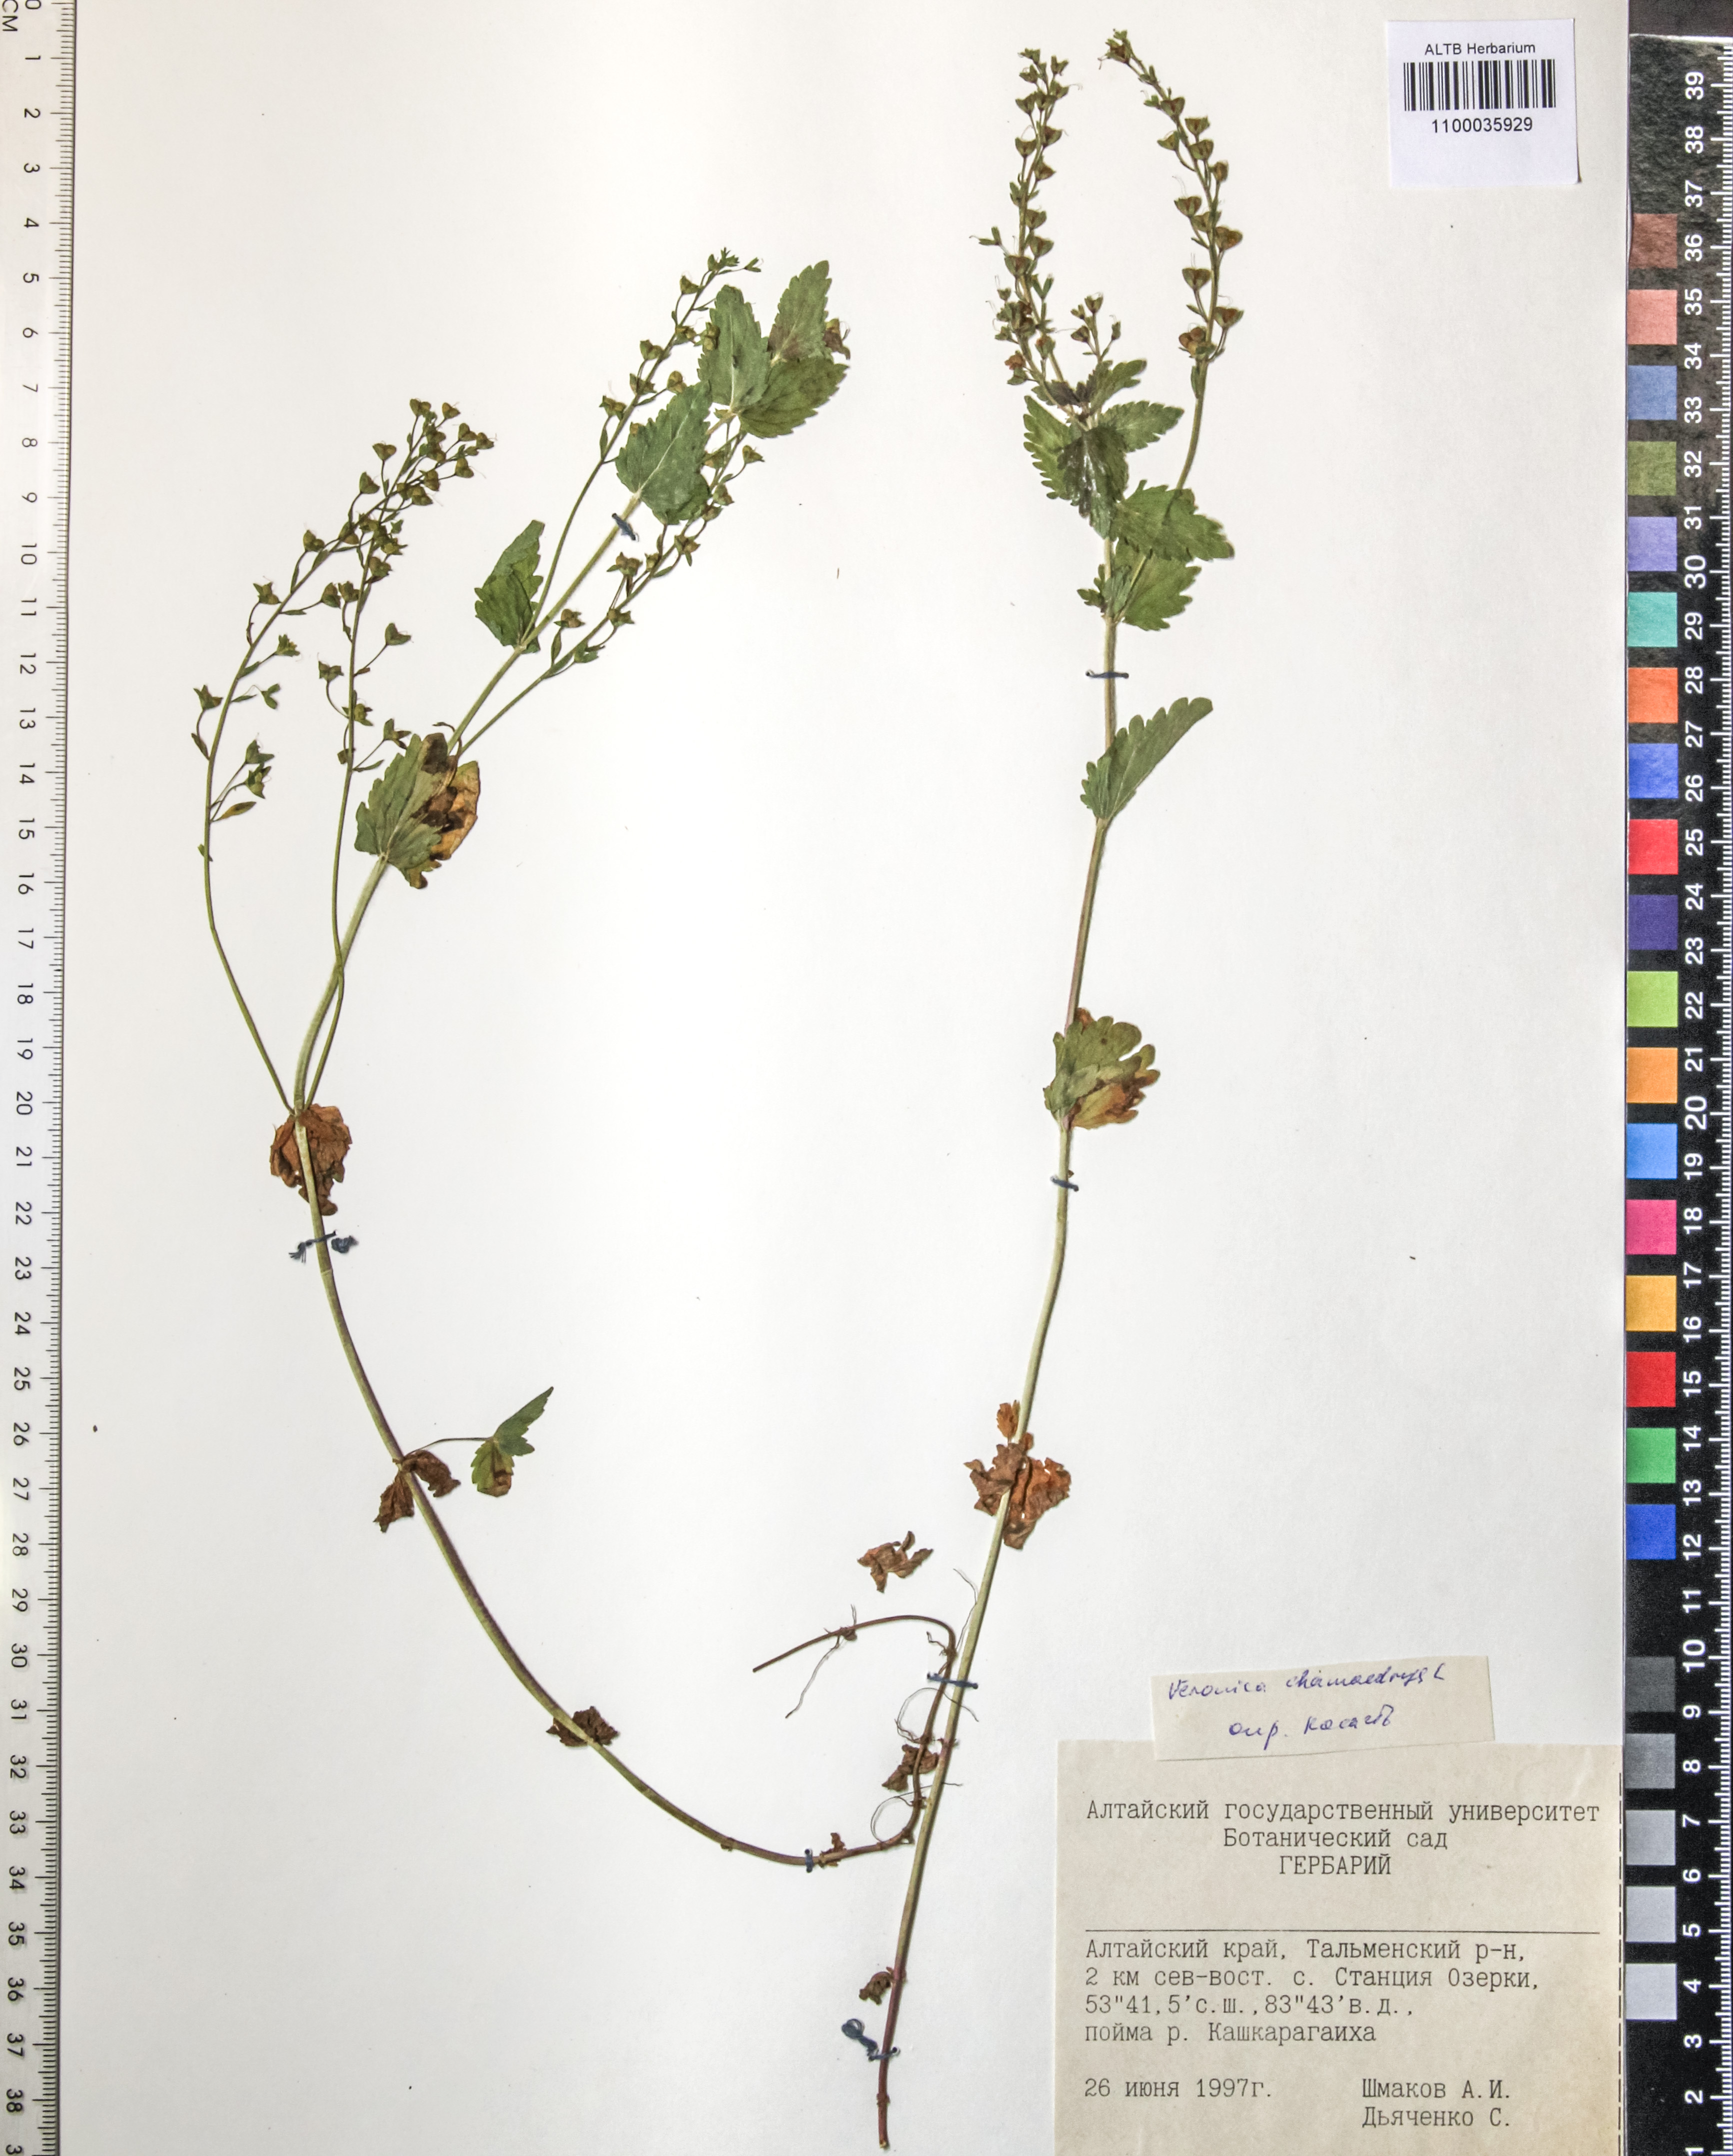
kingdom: Plantae
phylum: Tracheophyta
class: Magnoliopsida
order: Lamiales
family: Plantaginaceae
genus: Veronica
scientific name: Veronica chamaedrys
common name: Germander speedwell
